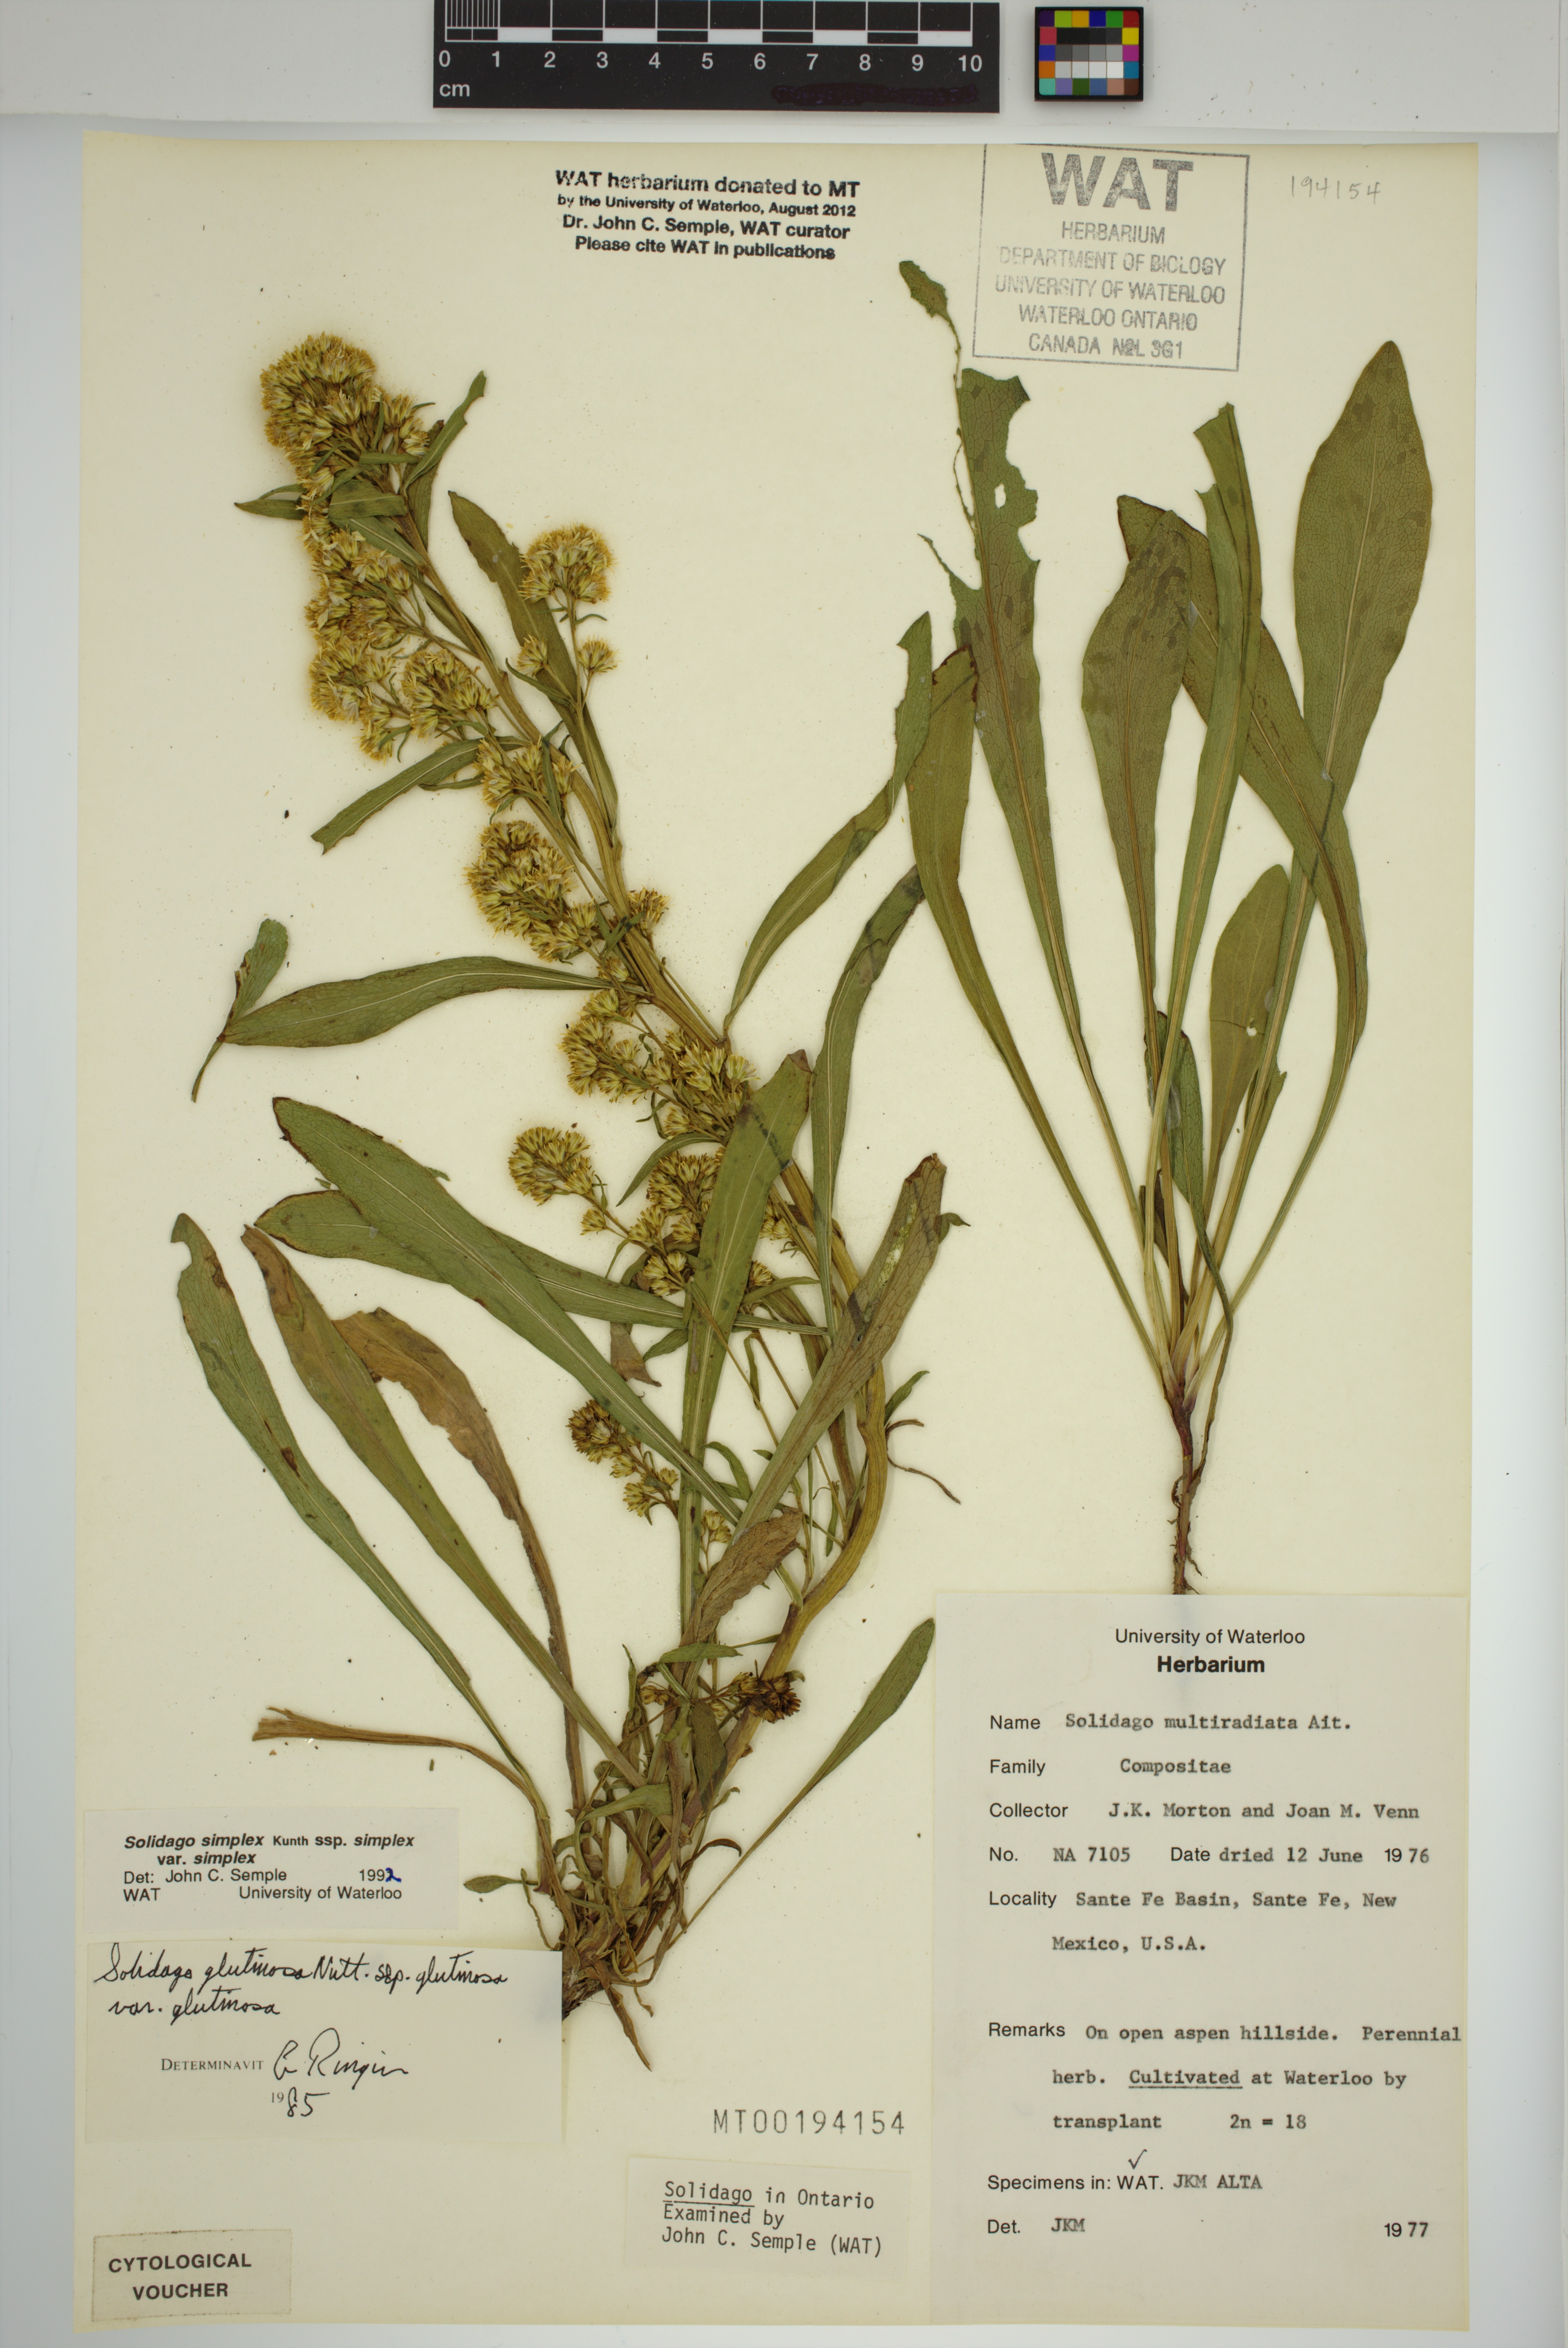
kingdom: Plantae
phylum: Tracheophyta
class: Magnoliopsida
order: Asterales
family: Asteraceae
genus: Solidago
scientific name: Solidago glutinosa
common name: Decumbent goldenrod
